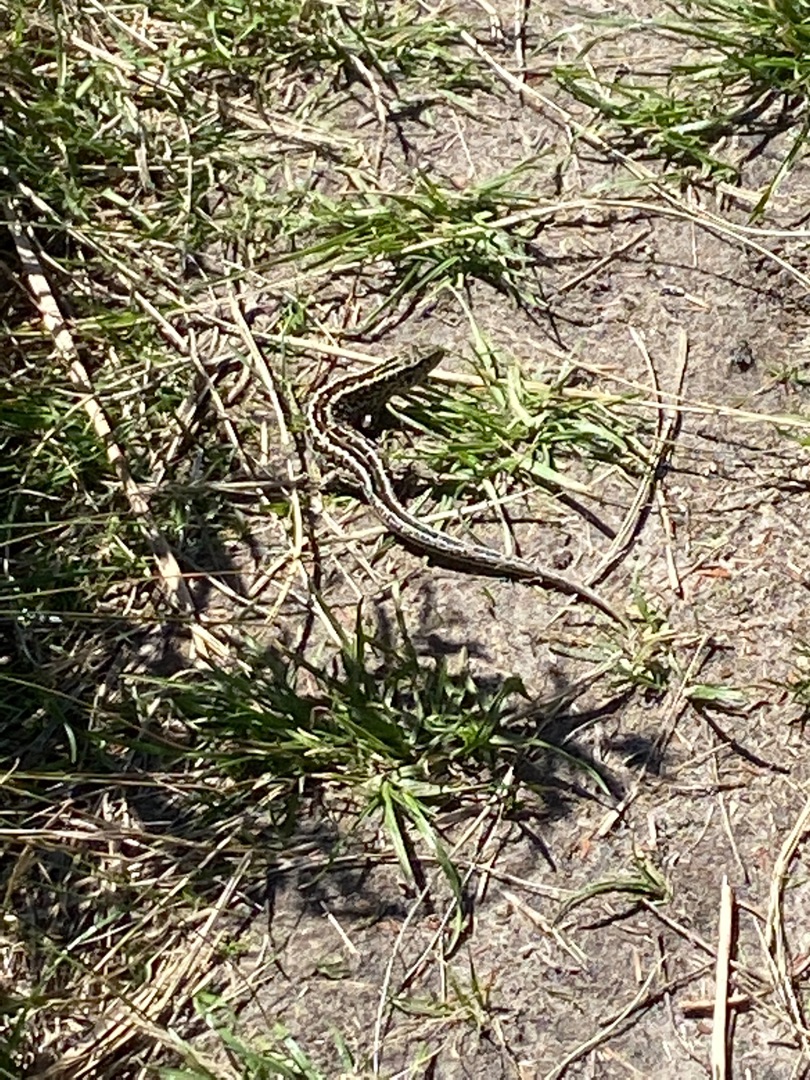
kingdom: Animalia
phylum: Chordata
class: Squamata
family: Lacertidae
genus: Lacerta
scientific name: Lacerta agilis
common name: Markfirben
